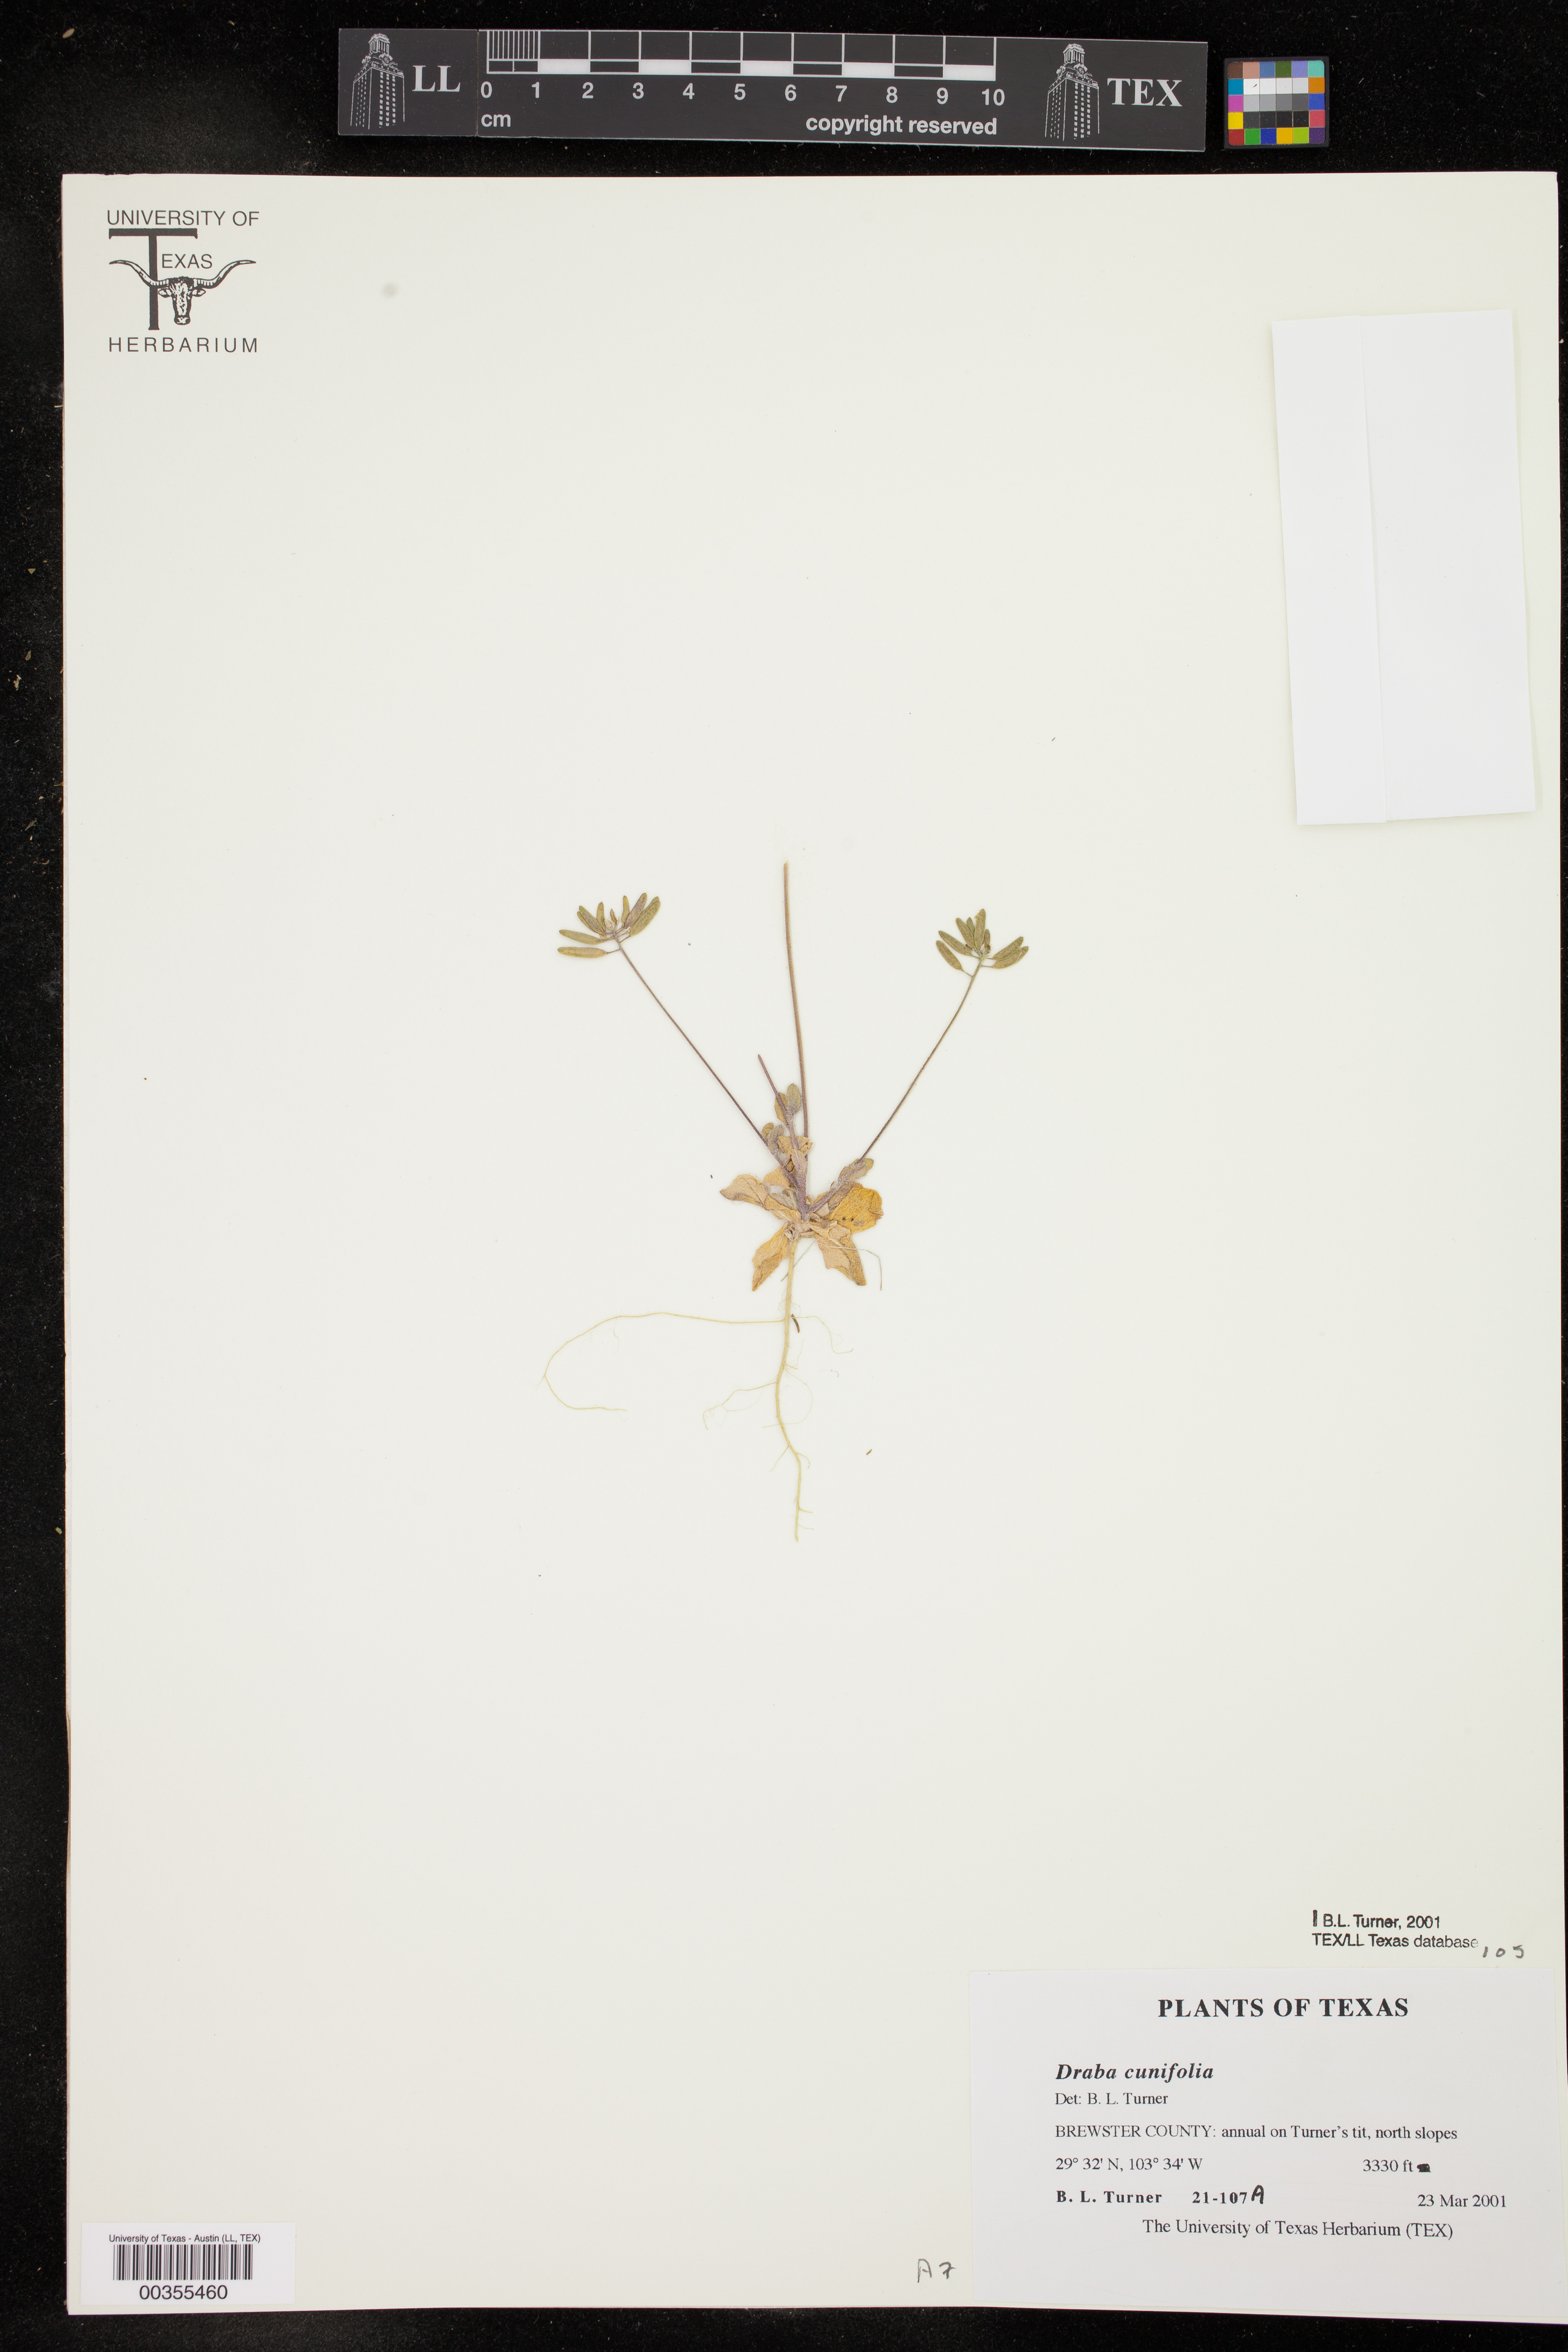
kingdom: Plantae
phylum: Tracheophyta
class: Magnoliopsida
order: Brassicales
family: Brassicaceae
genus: Tomostima
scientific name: Tomostima cuneifolia
